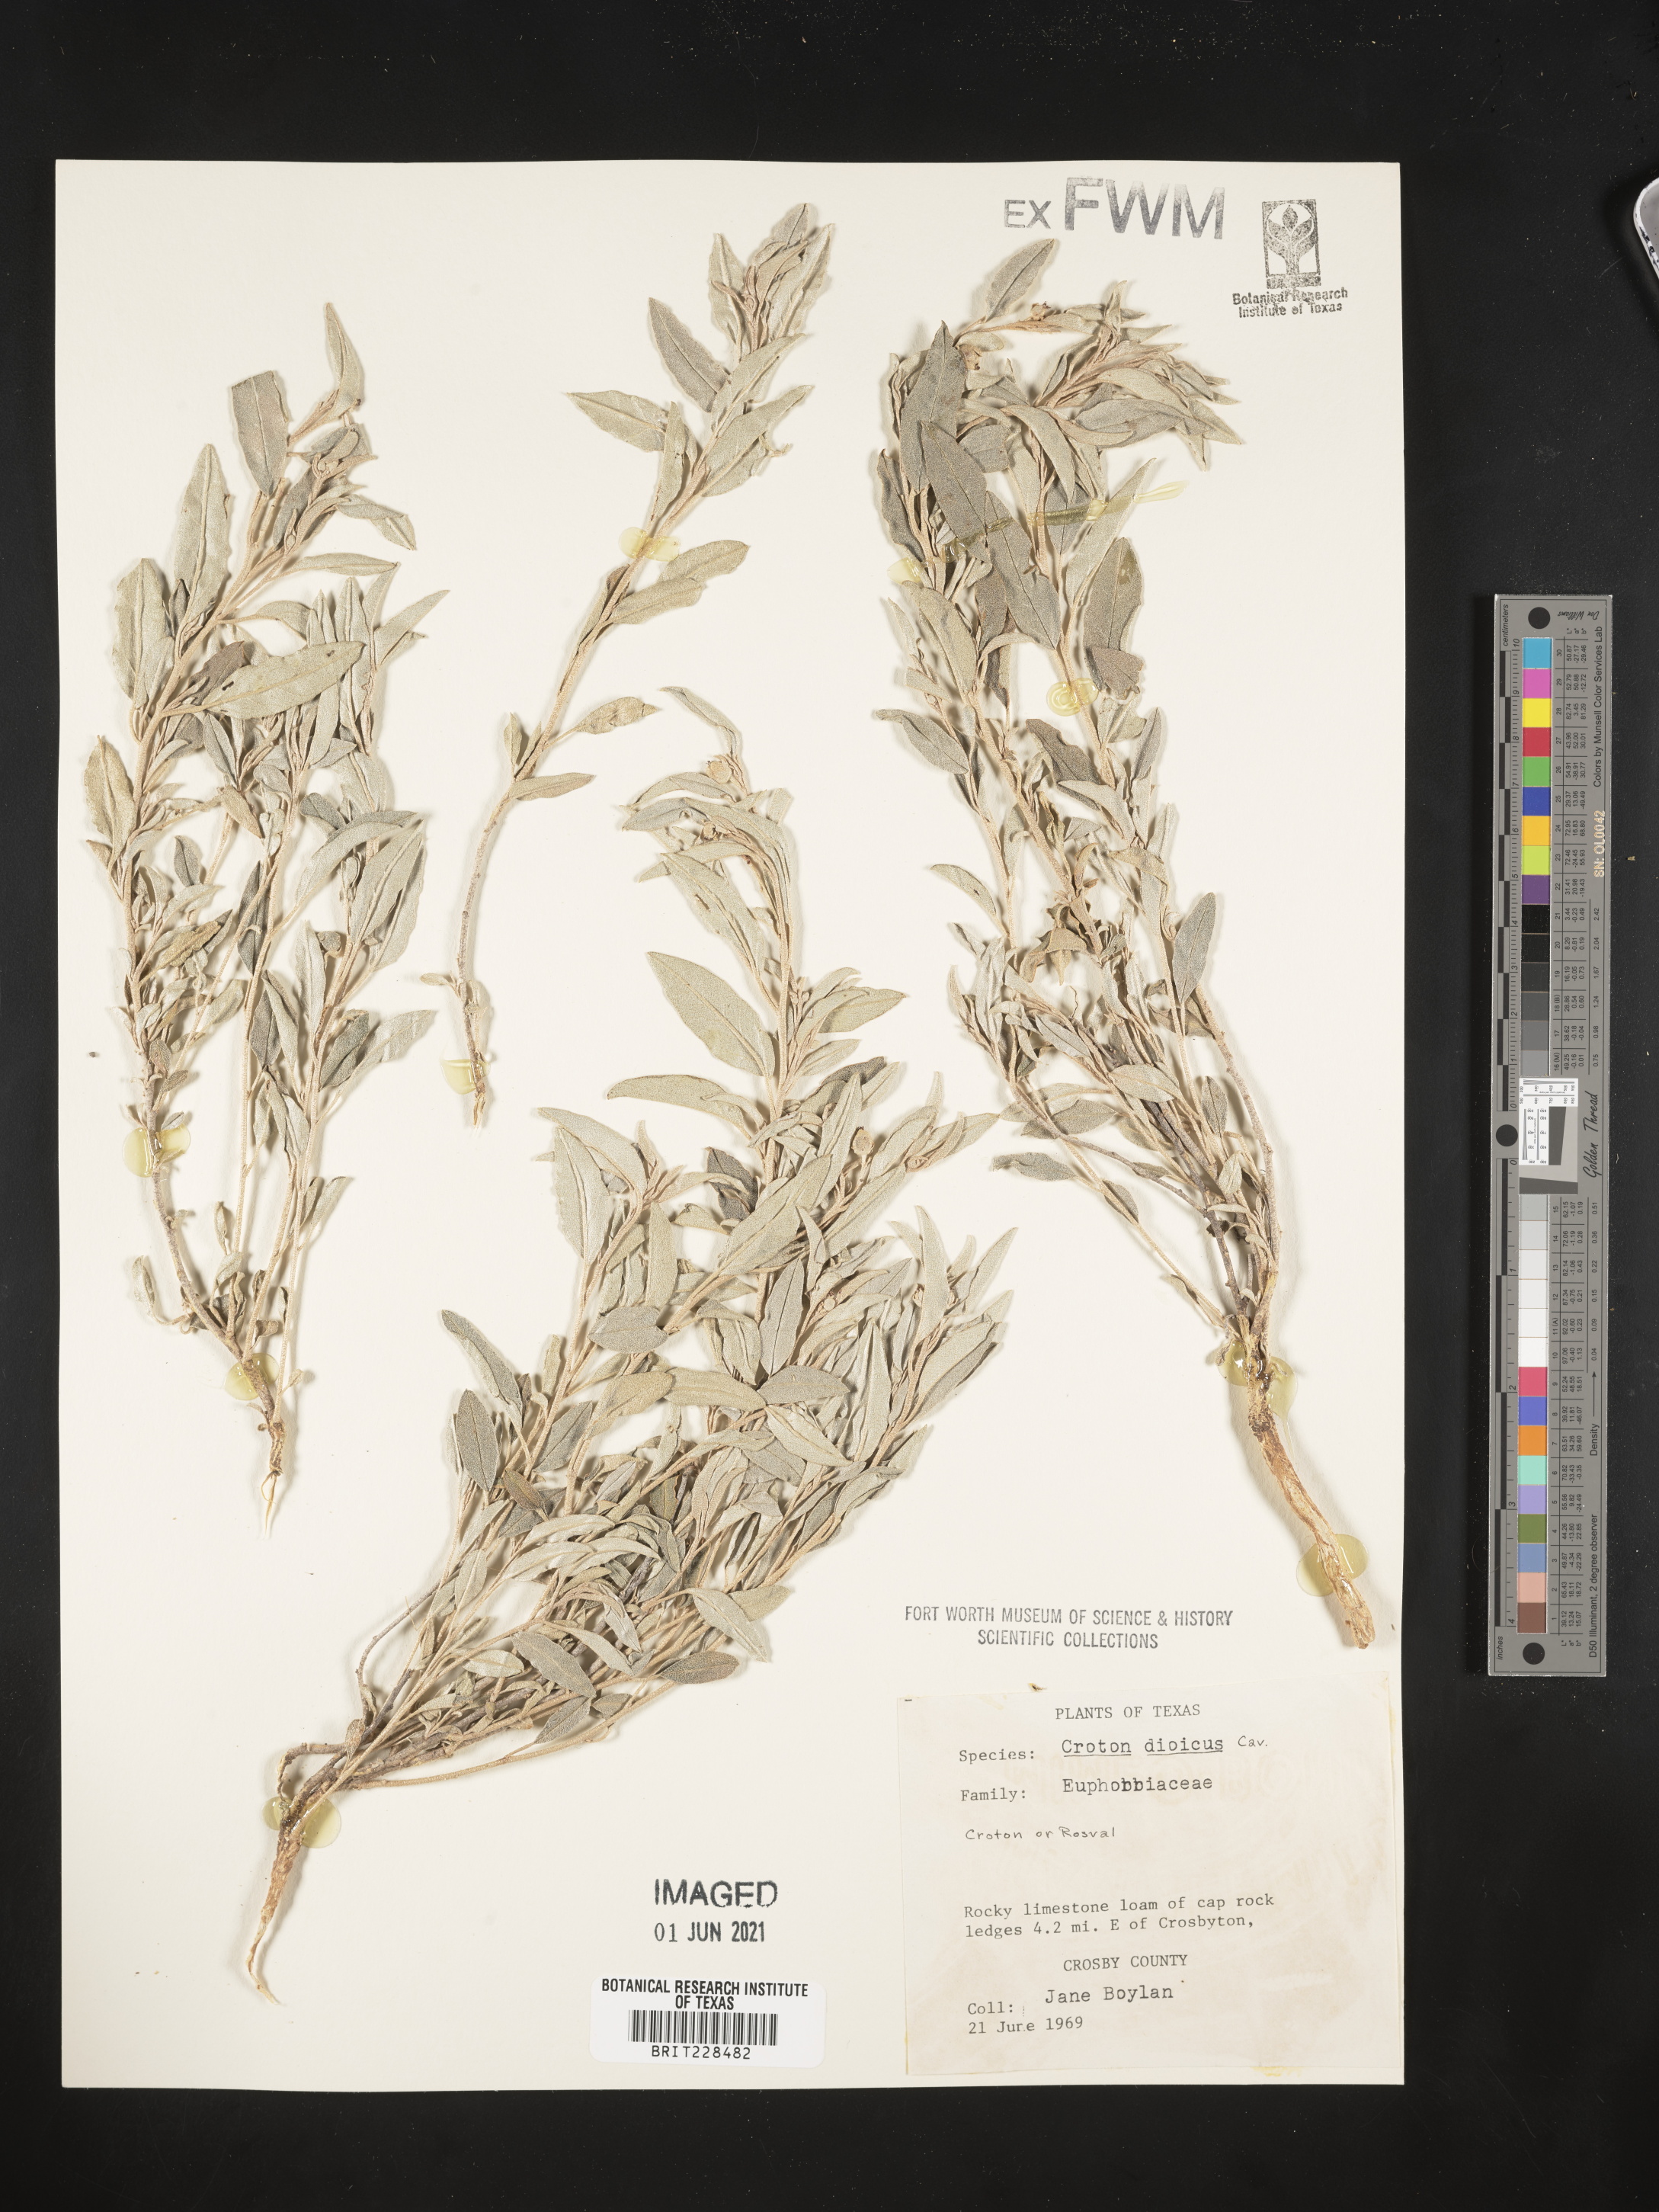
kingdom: Plantae
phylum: Tracheophyta
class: Magnoliopsida
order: Malpighiales
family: Euphorbiaceae
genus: Croton
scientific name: Croton dioicus
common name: Grassland croton
